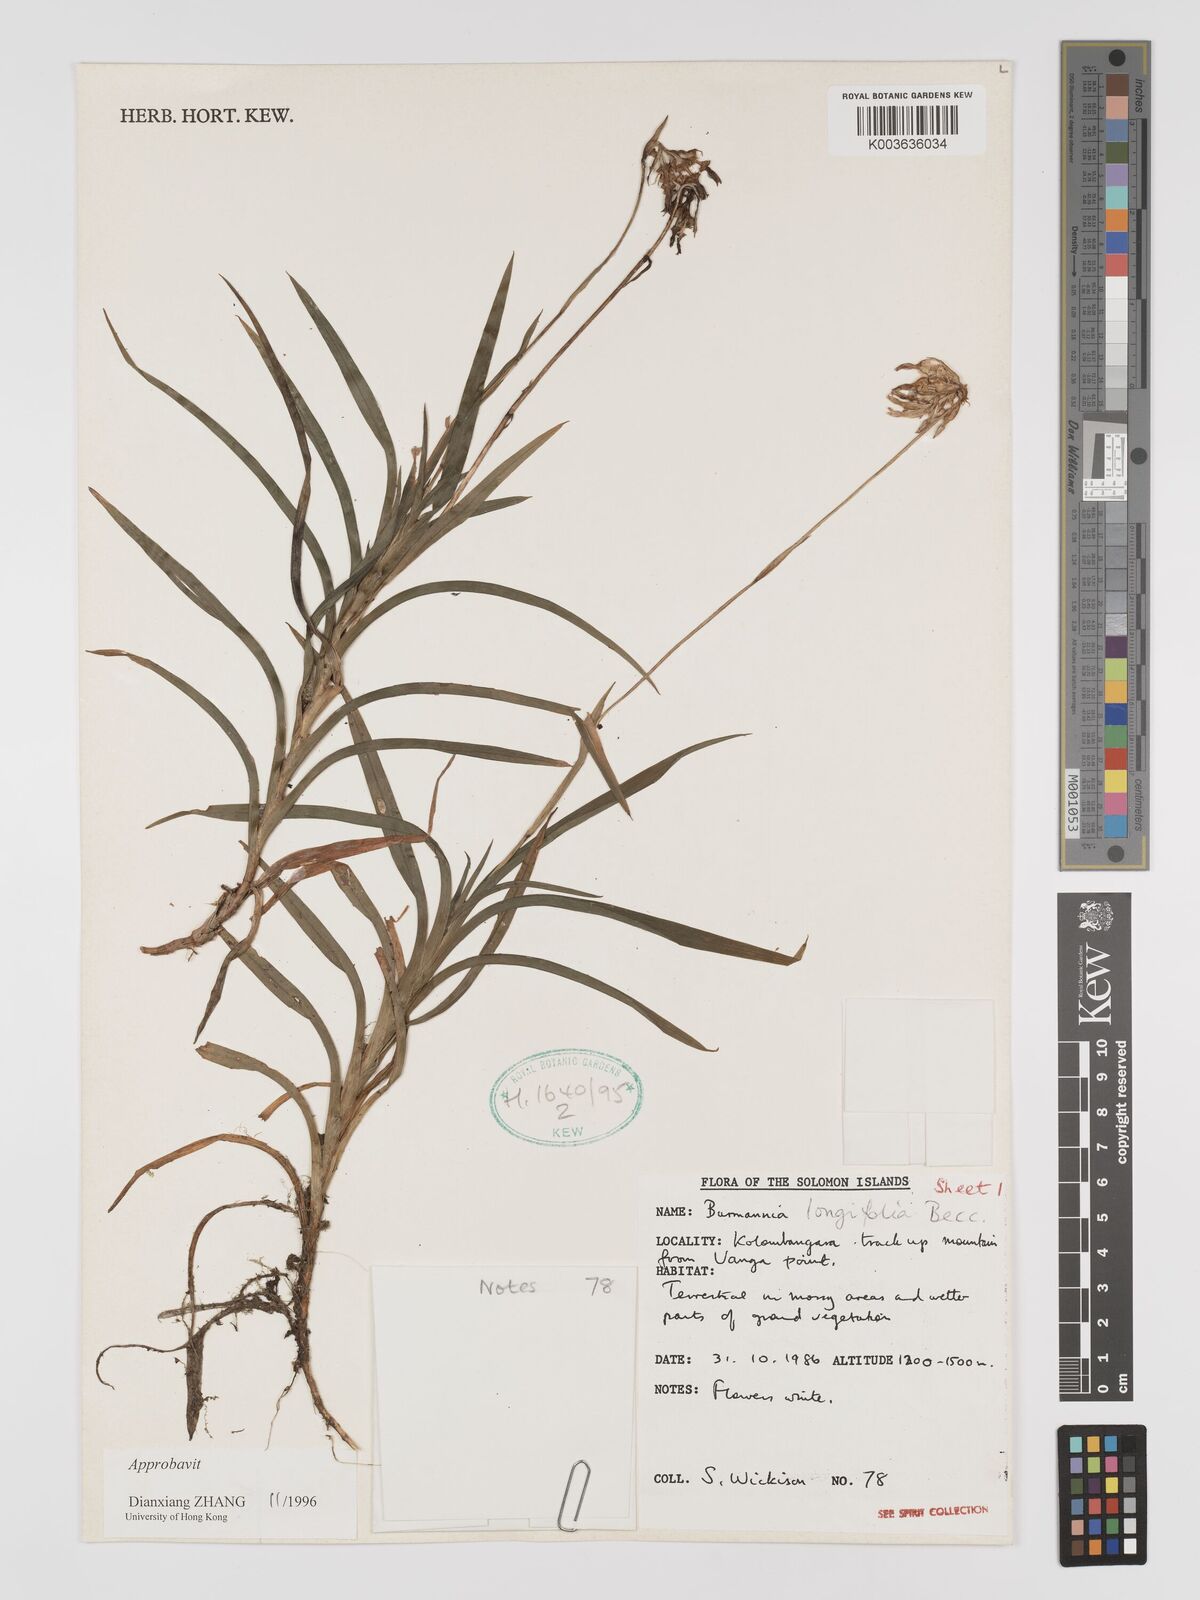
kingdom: Plantae
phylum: Tracheophyta
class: Liliopsida
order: Dioscoreales
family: Burmanniaceae
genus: Burmannia
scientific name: Burmannia longifolia
